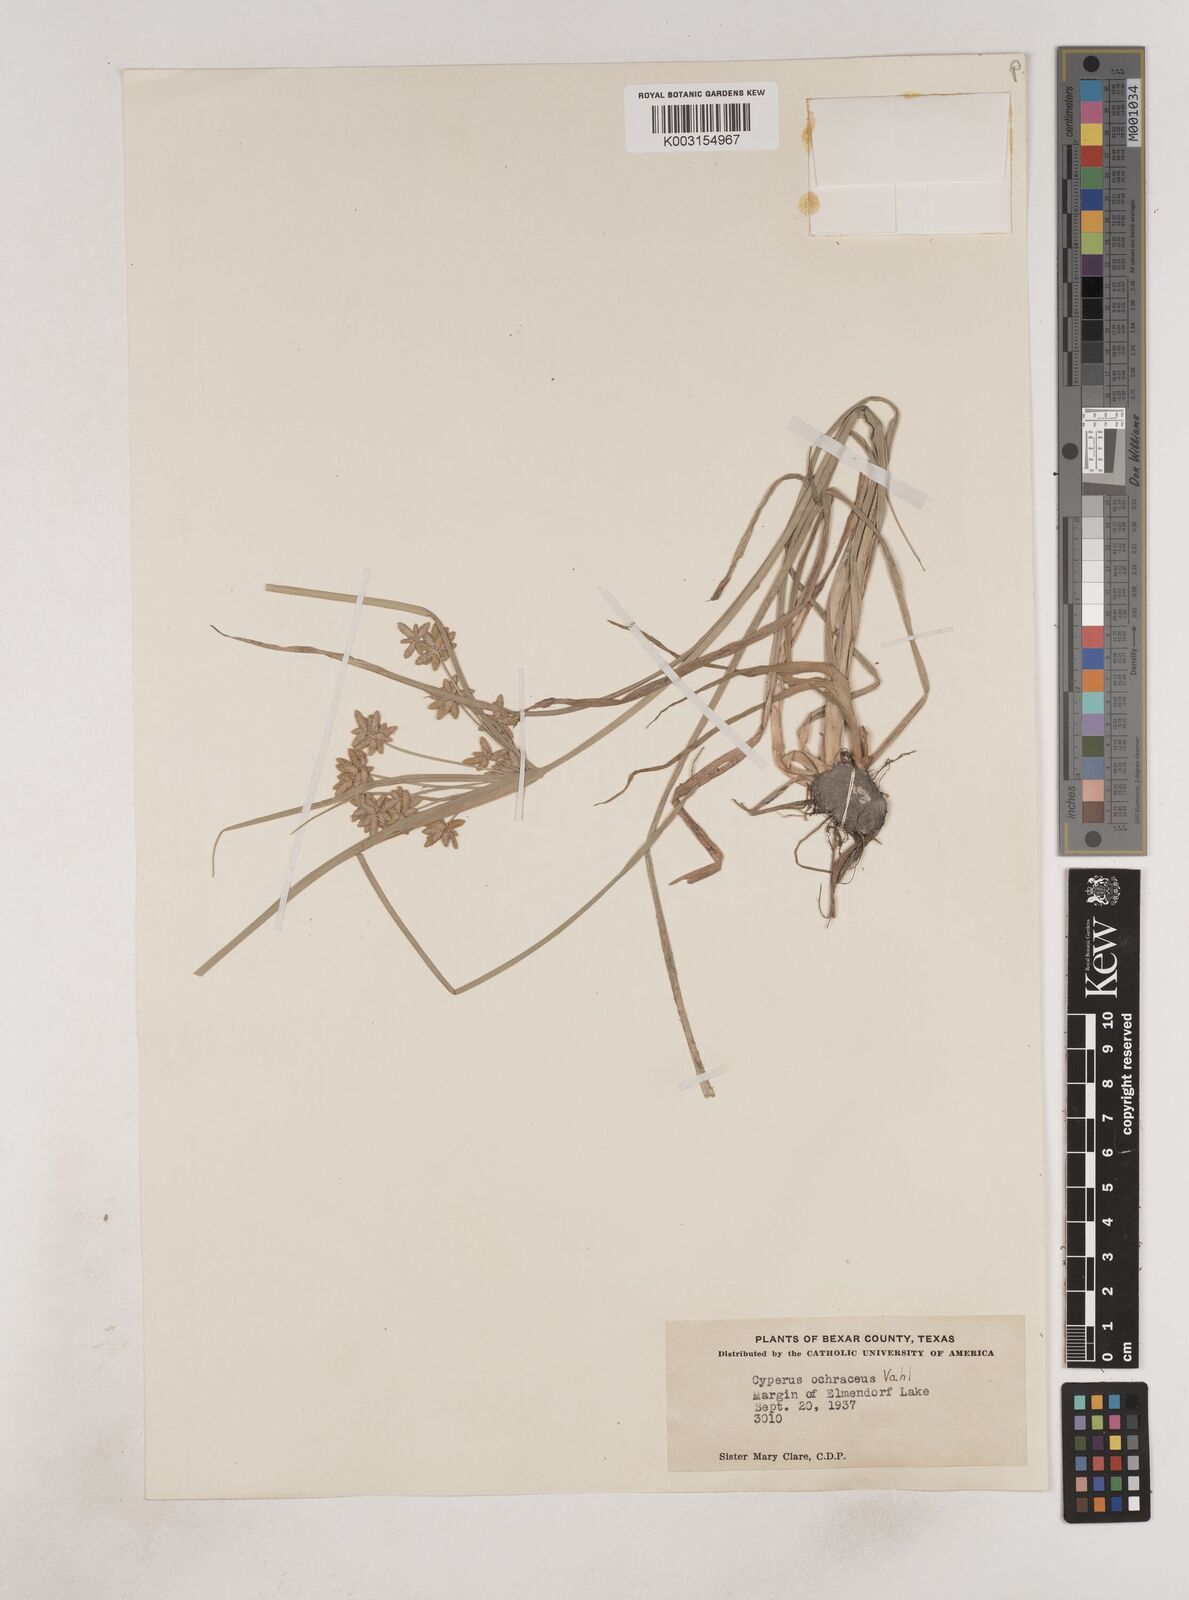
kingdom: Plantae
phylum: Tracheophyta
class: Liliopsida
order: Poales
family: Cyperaceae
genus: Cyperus
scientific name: Cyperus ochraceus
